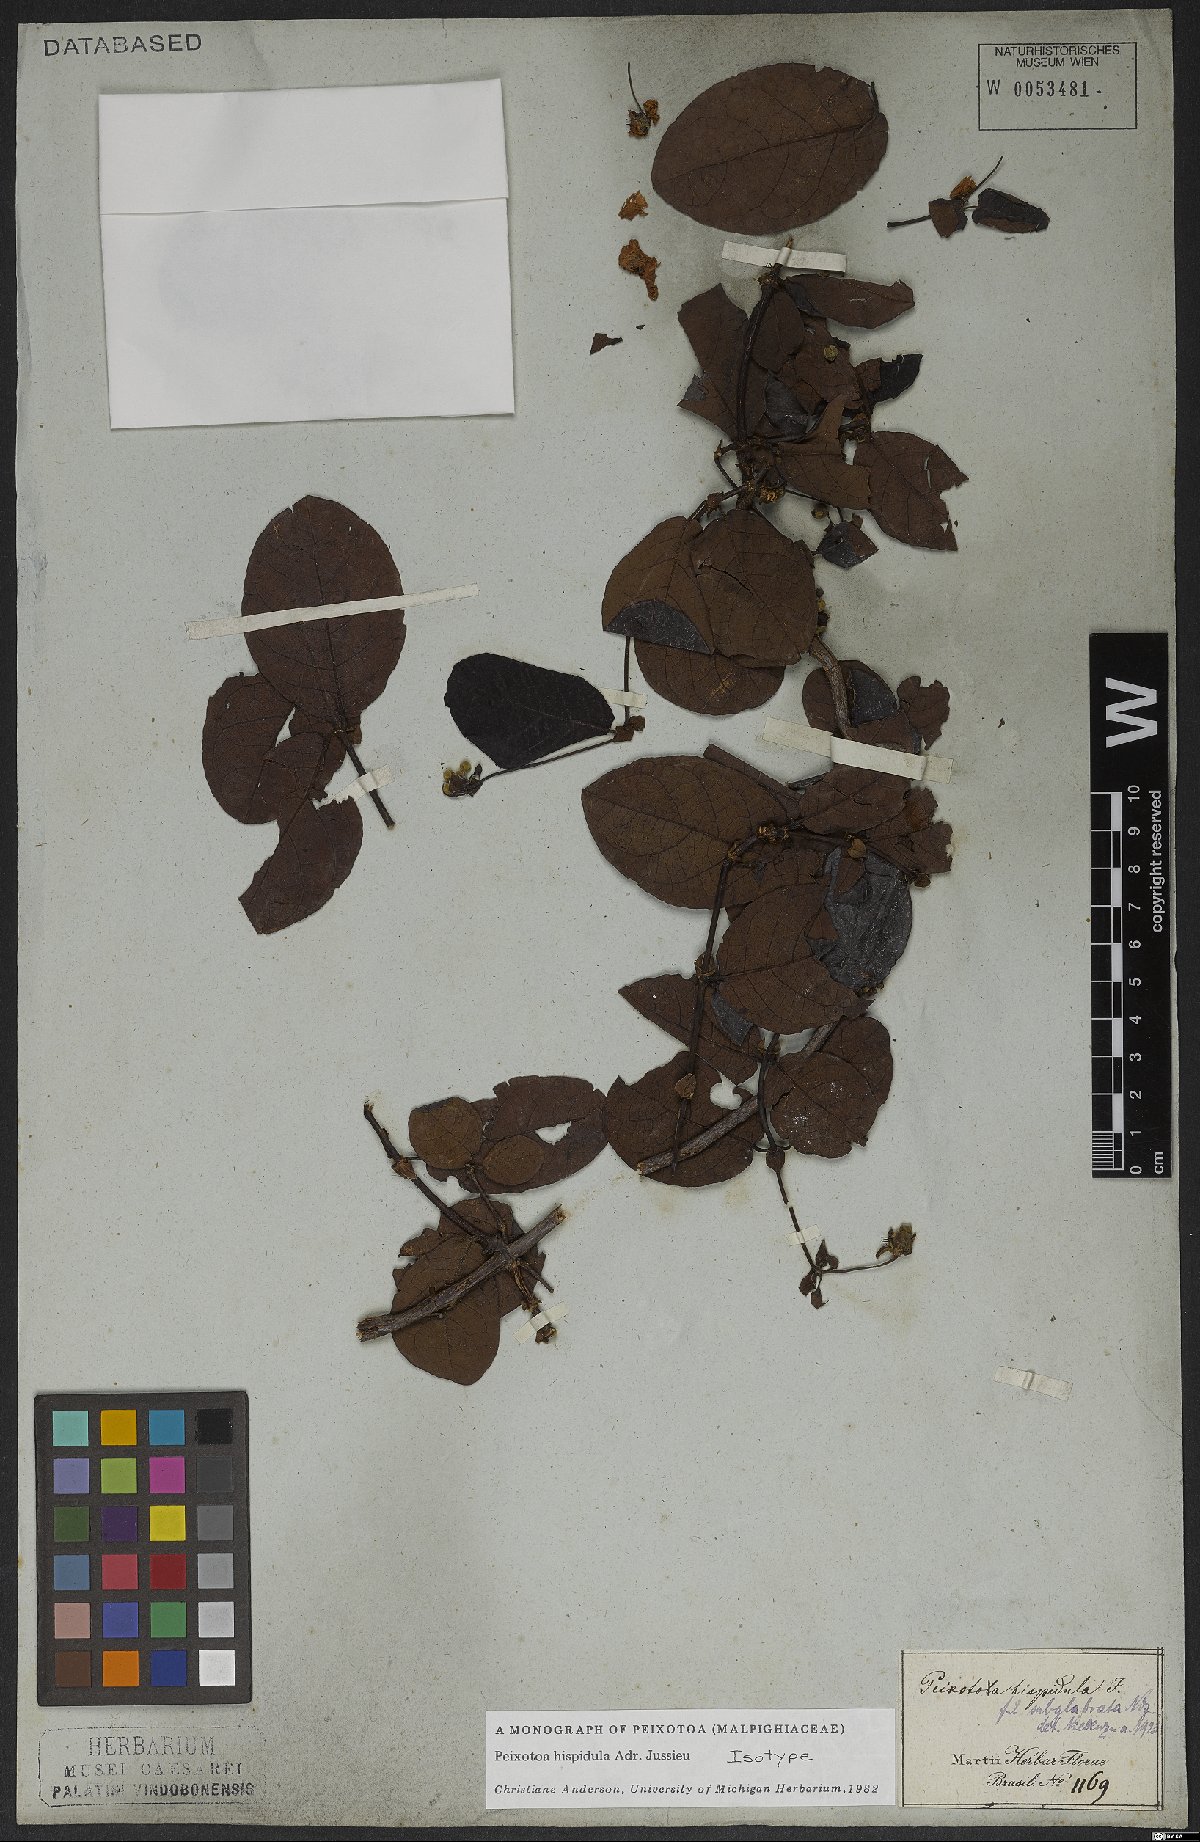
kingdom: Plantae
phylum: Tracheophyta
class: Magnoliopsida
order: Malpighiales
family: Malpighiaceae
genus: Peixotoa
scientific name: Peixotoa hispidula
